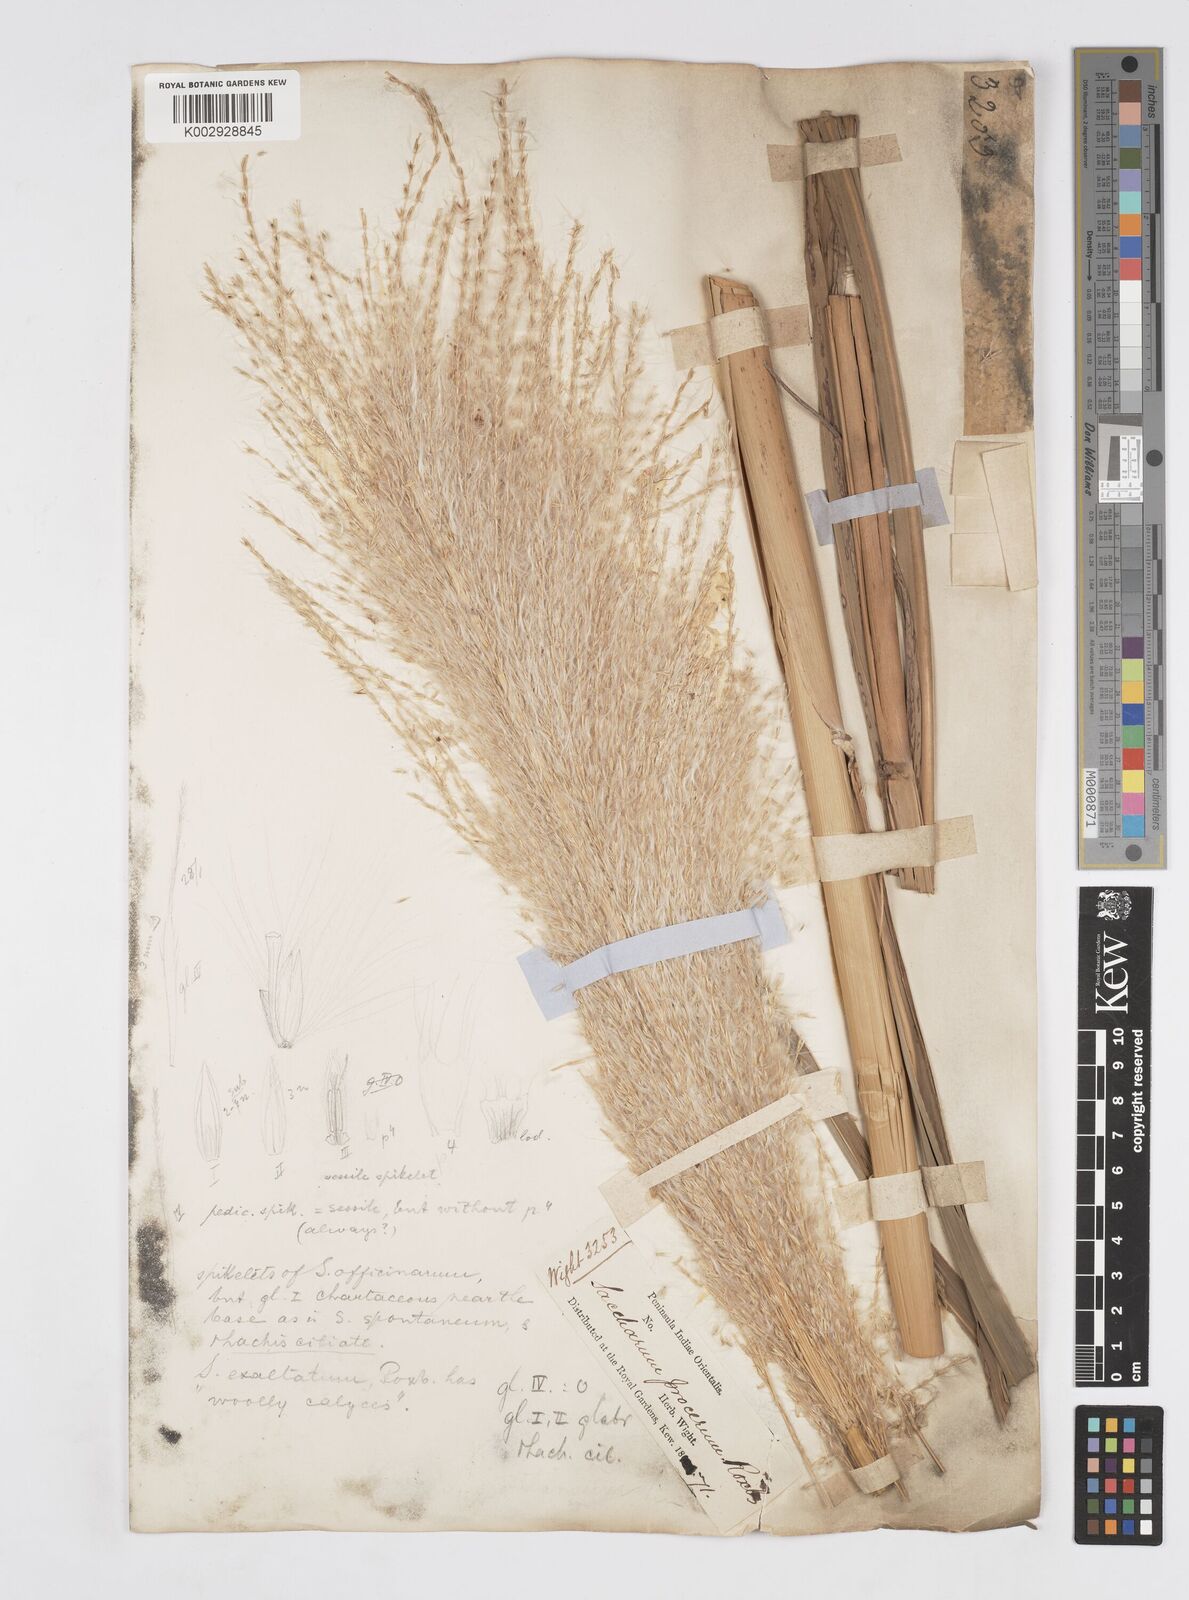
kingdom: Plantae
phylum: Tracheophyta
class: Liliopsida
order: Poales
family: Poaceae
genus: Saccharum
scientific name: Saccharum officinarum
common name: Sugarcane
